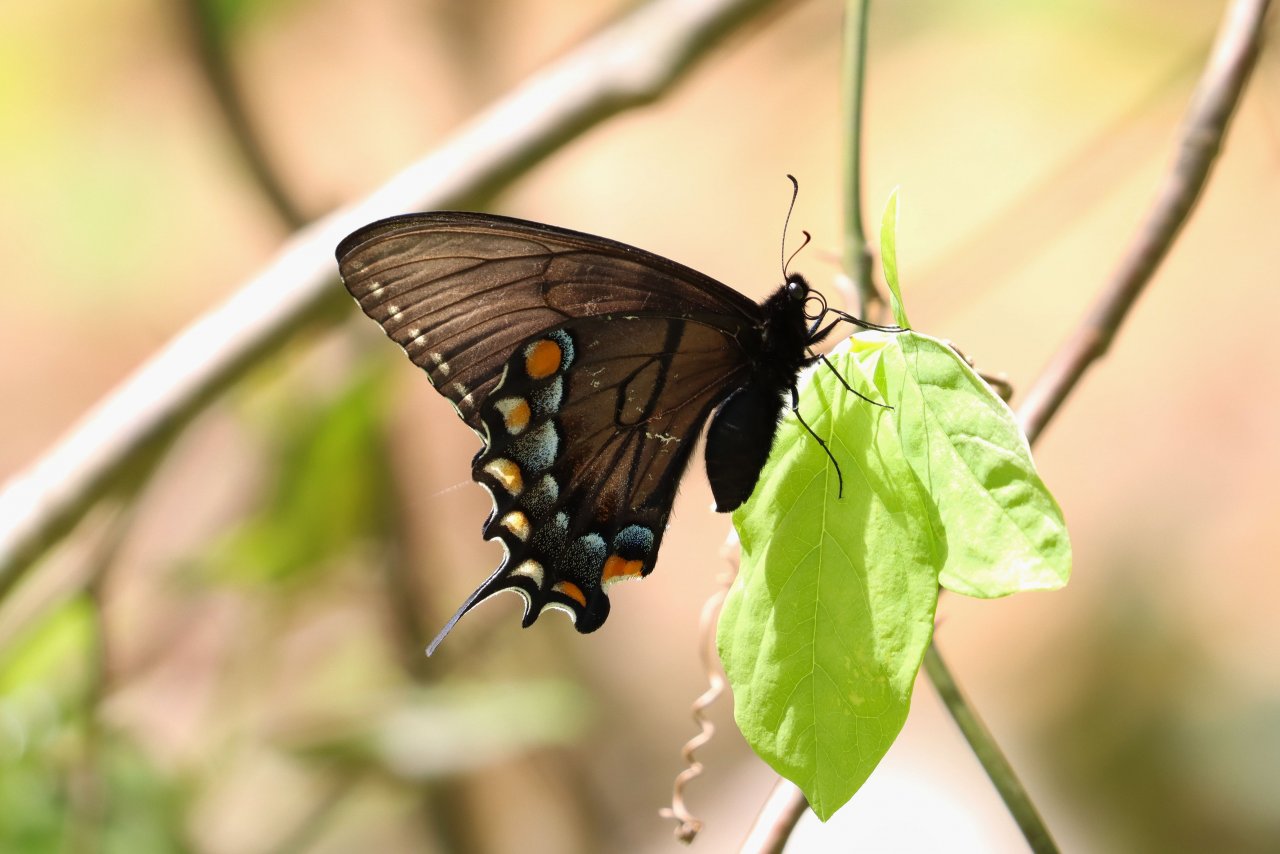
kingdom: Animalia
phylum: Arthropoda
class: Insecta
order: Lepidoptera
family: Papilionidae
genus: Pterourus
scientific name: Pterourus glaucus
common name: Eastern Tiger Swallowtail
